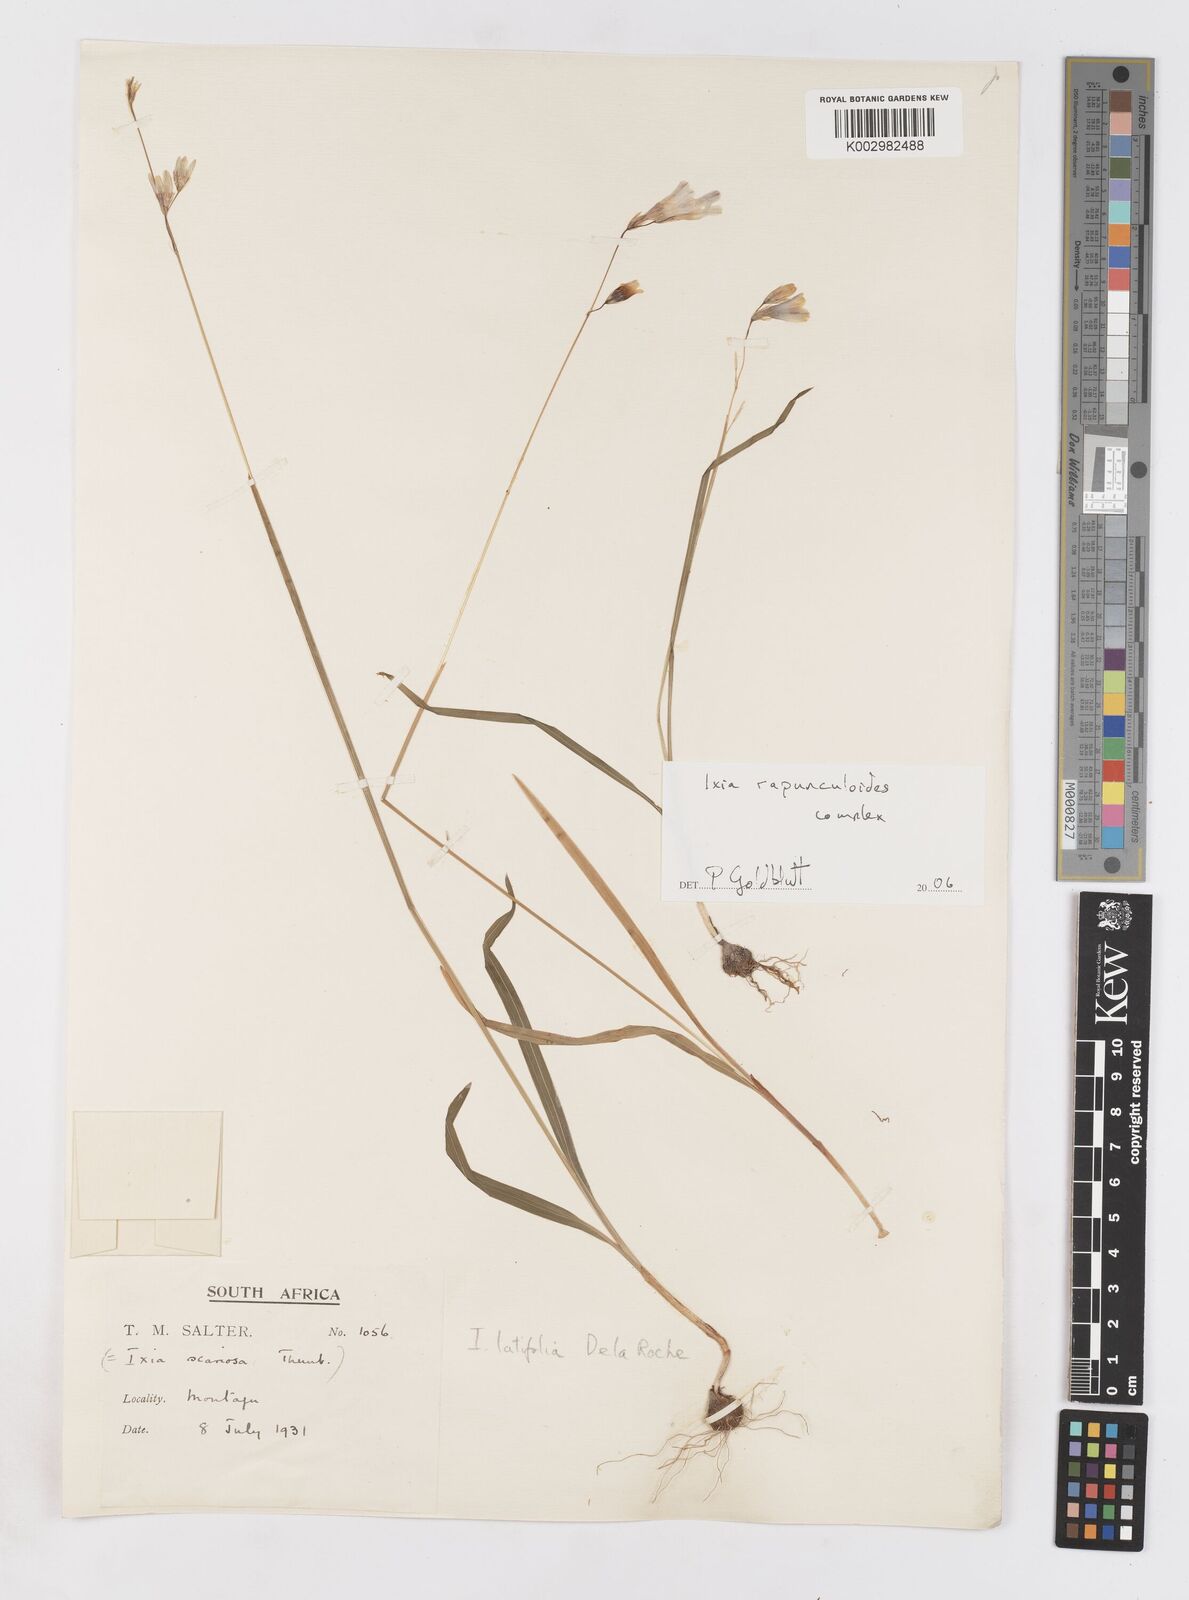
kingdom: Plantae
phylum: Tracheophyta
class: Liliopsida
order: Asparagales
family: Iridaceae
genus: Ixia
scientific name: Ixia rapunculoides
